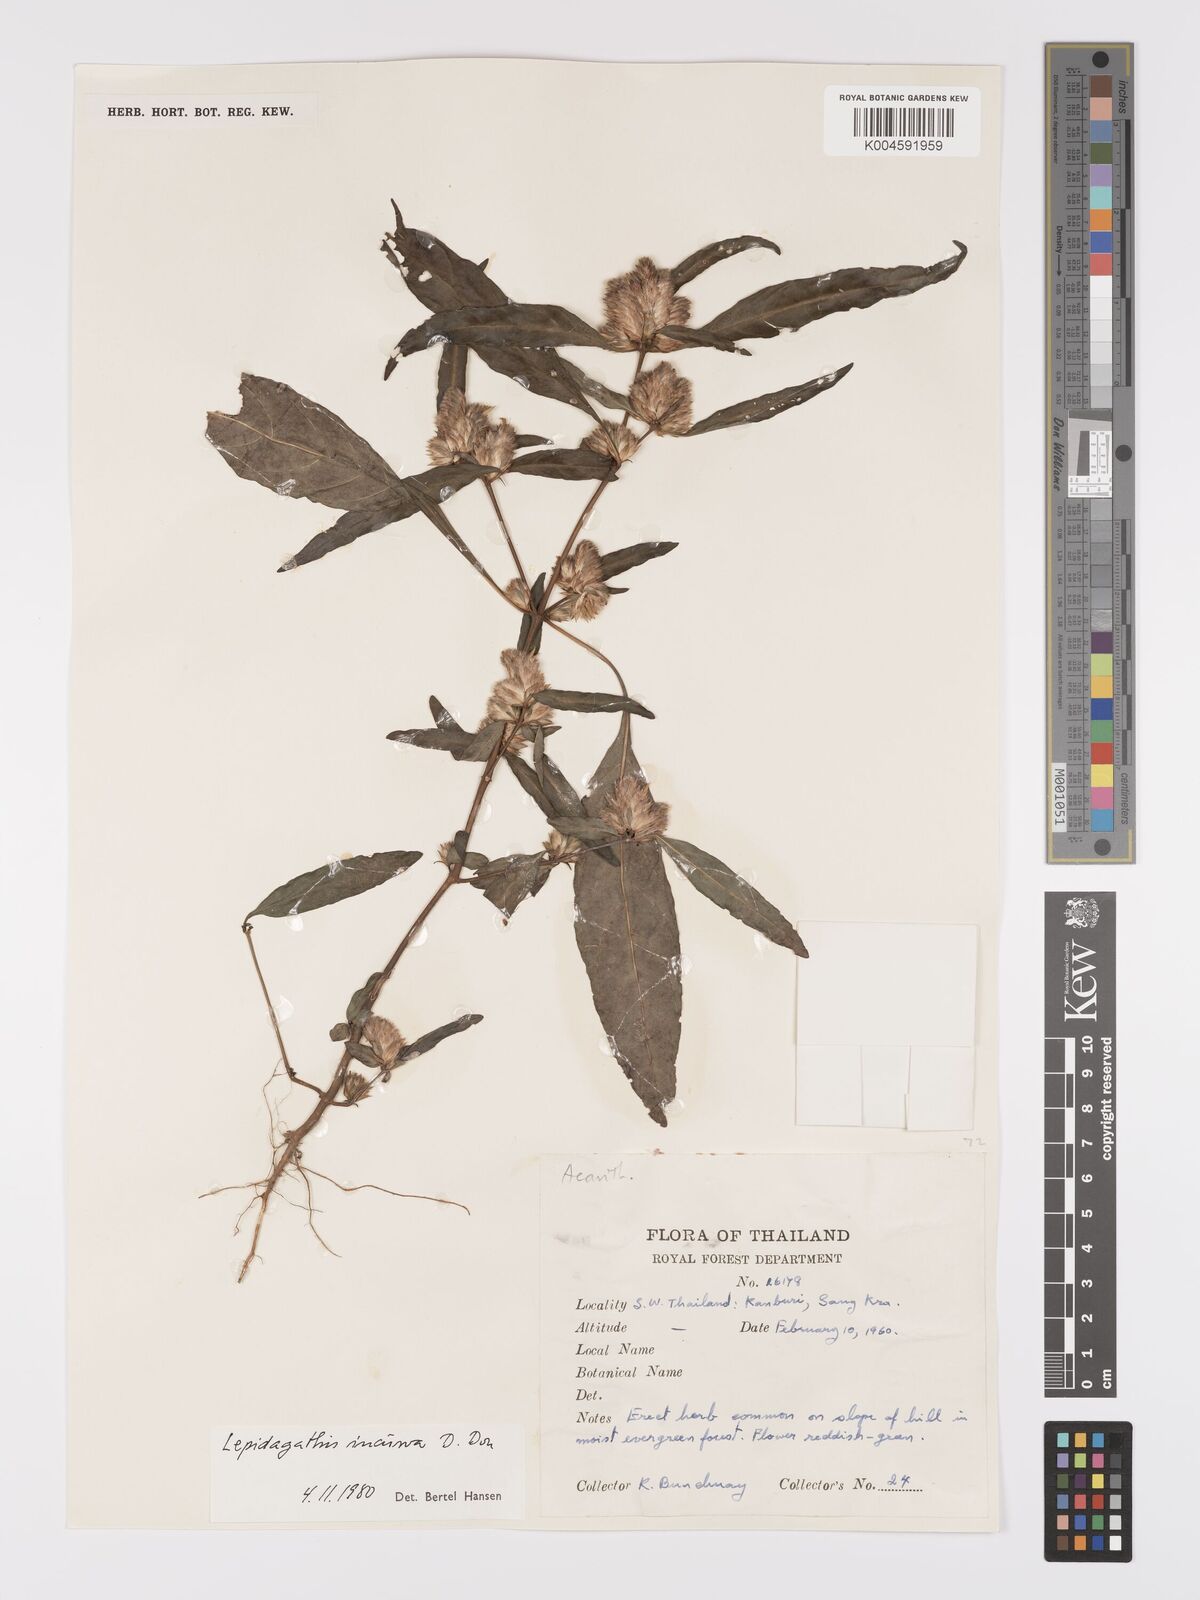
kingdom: Plantae
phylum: Tracheophyta
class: Magnoliopsida
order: Lamiales
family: Acanthaceae
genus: Lepidagathis
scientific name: Lepidagathis incurva
